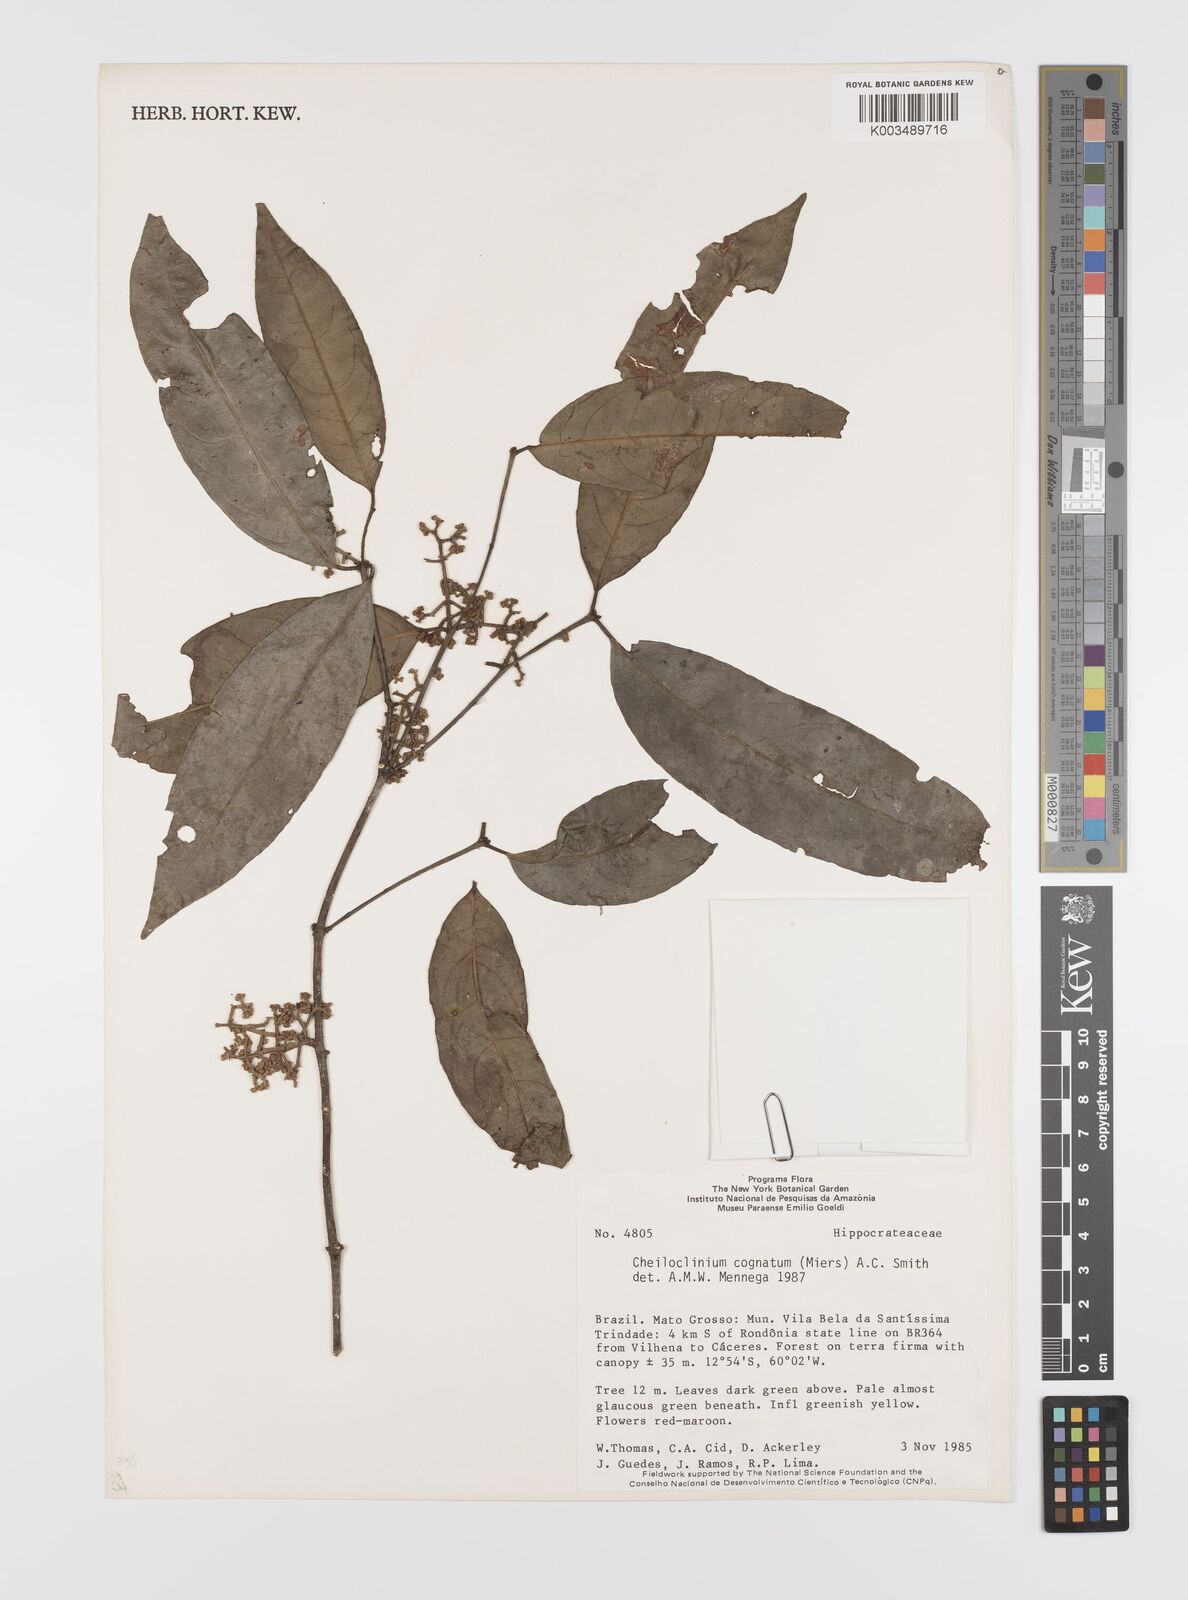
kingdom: Plantae
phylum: Tracheophyta
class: Magnoliopsida
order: Celastrales
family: Celastraceae
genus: Cheiloclinium
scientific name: Cheiloclinium cognatum
